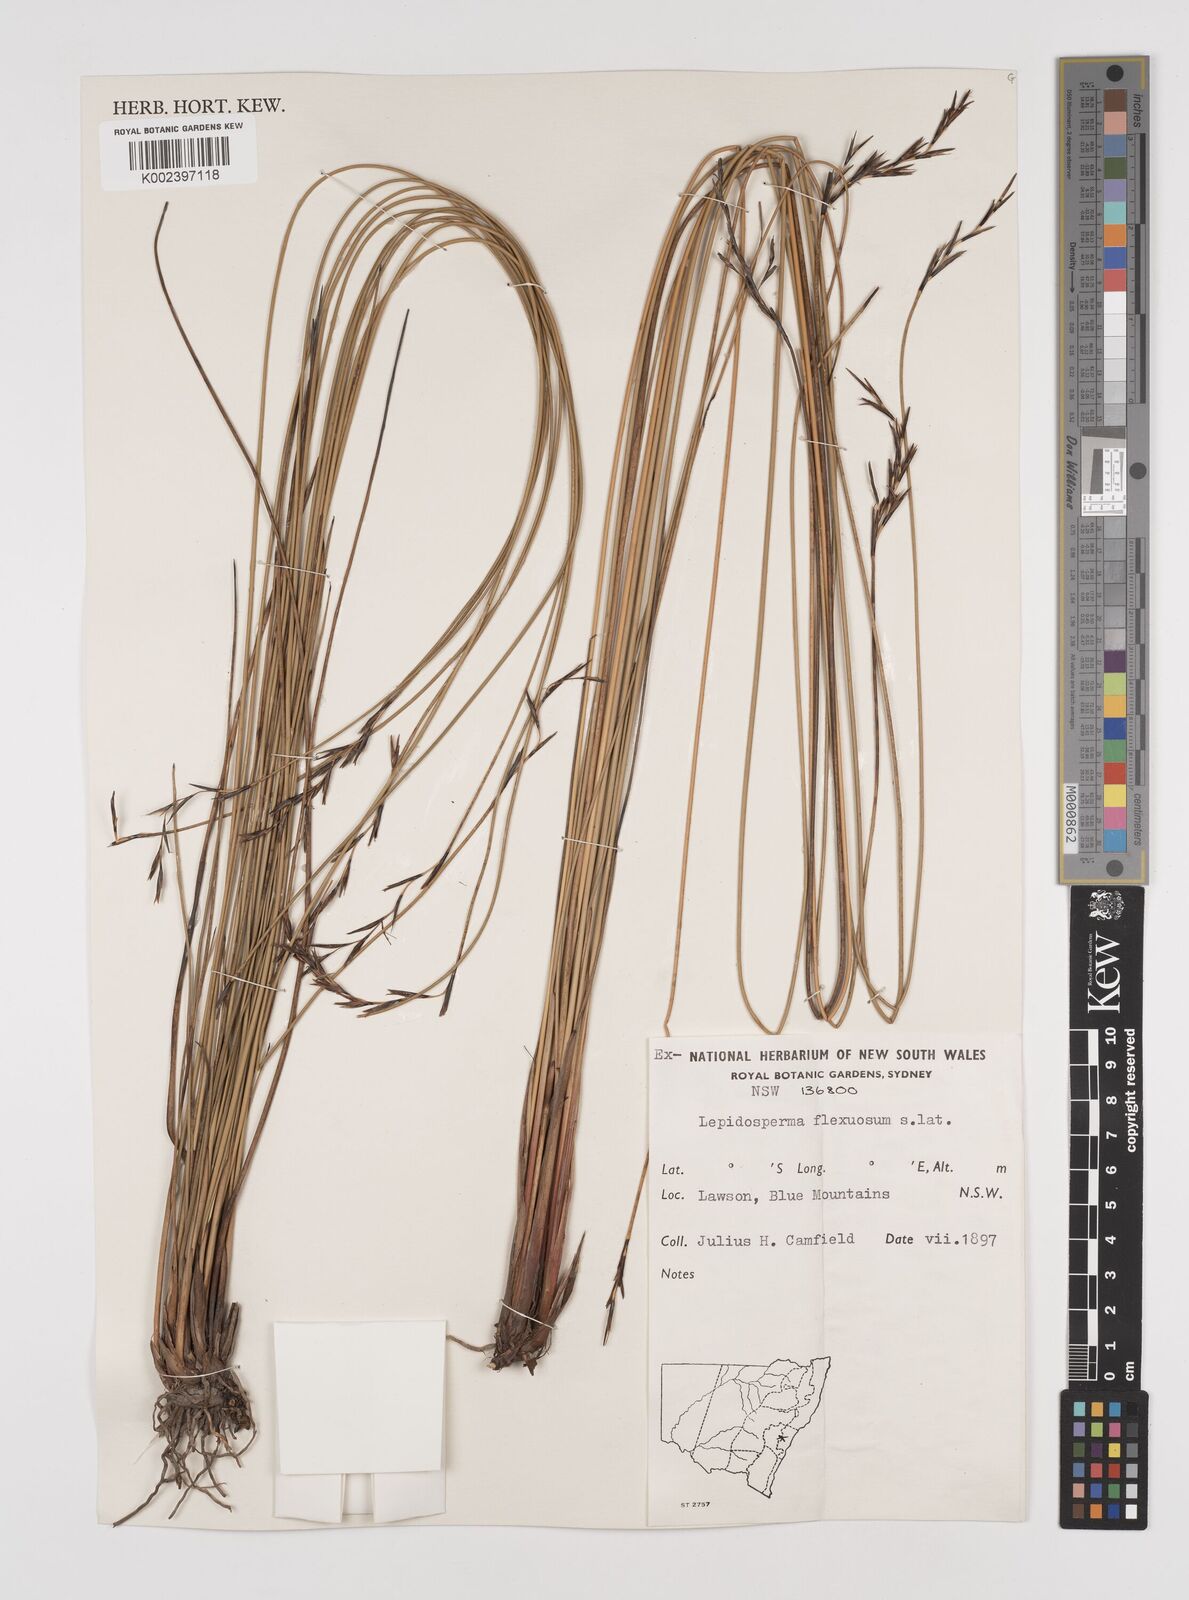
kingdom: Plantae
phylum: Tracheophyta
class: Liliopsida
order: Poales
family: Cyperaceae
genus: Lepidosperma
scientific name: Lepidosperma flexuosum
